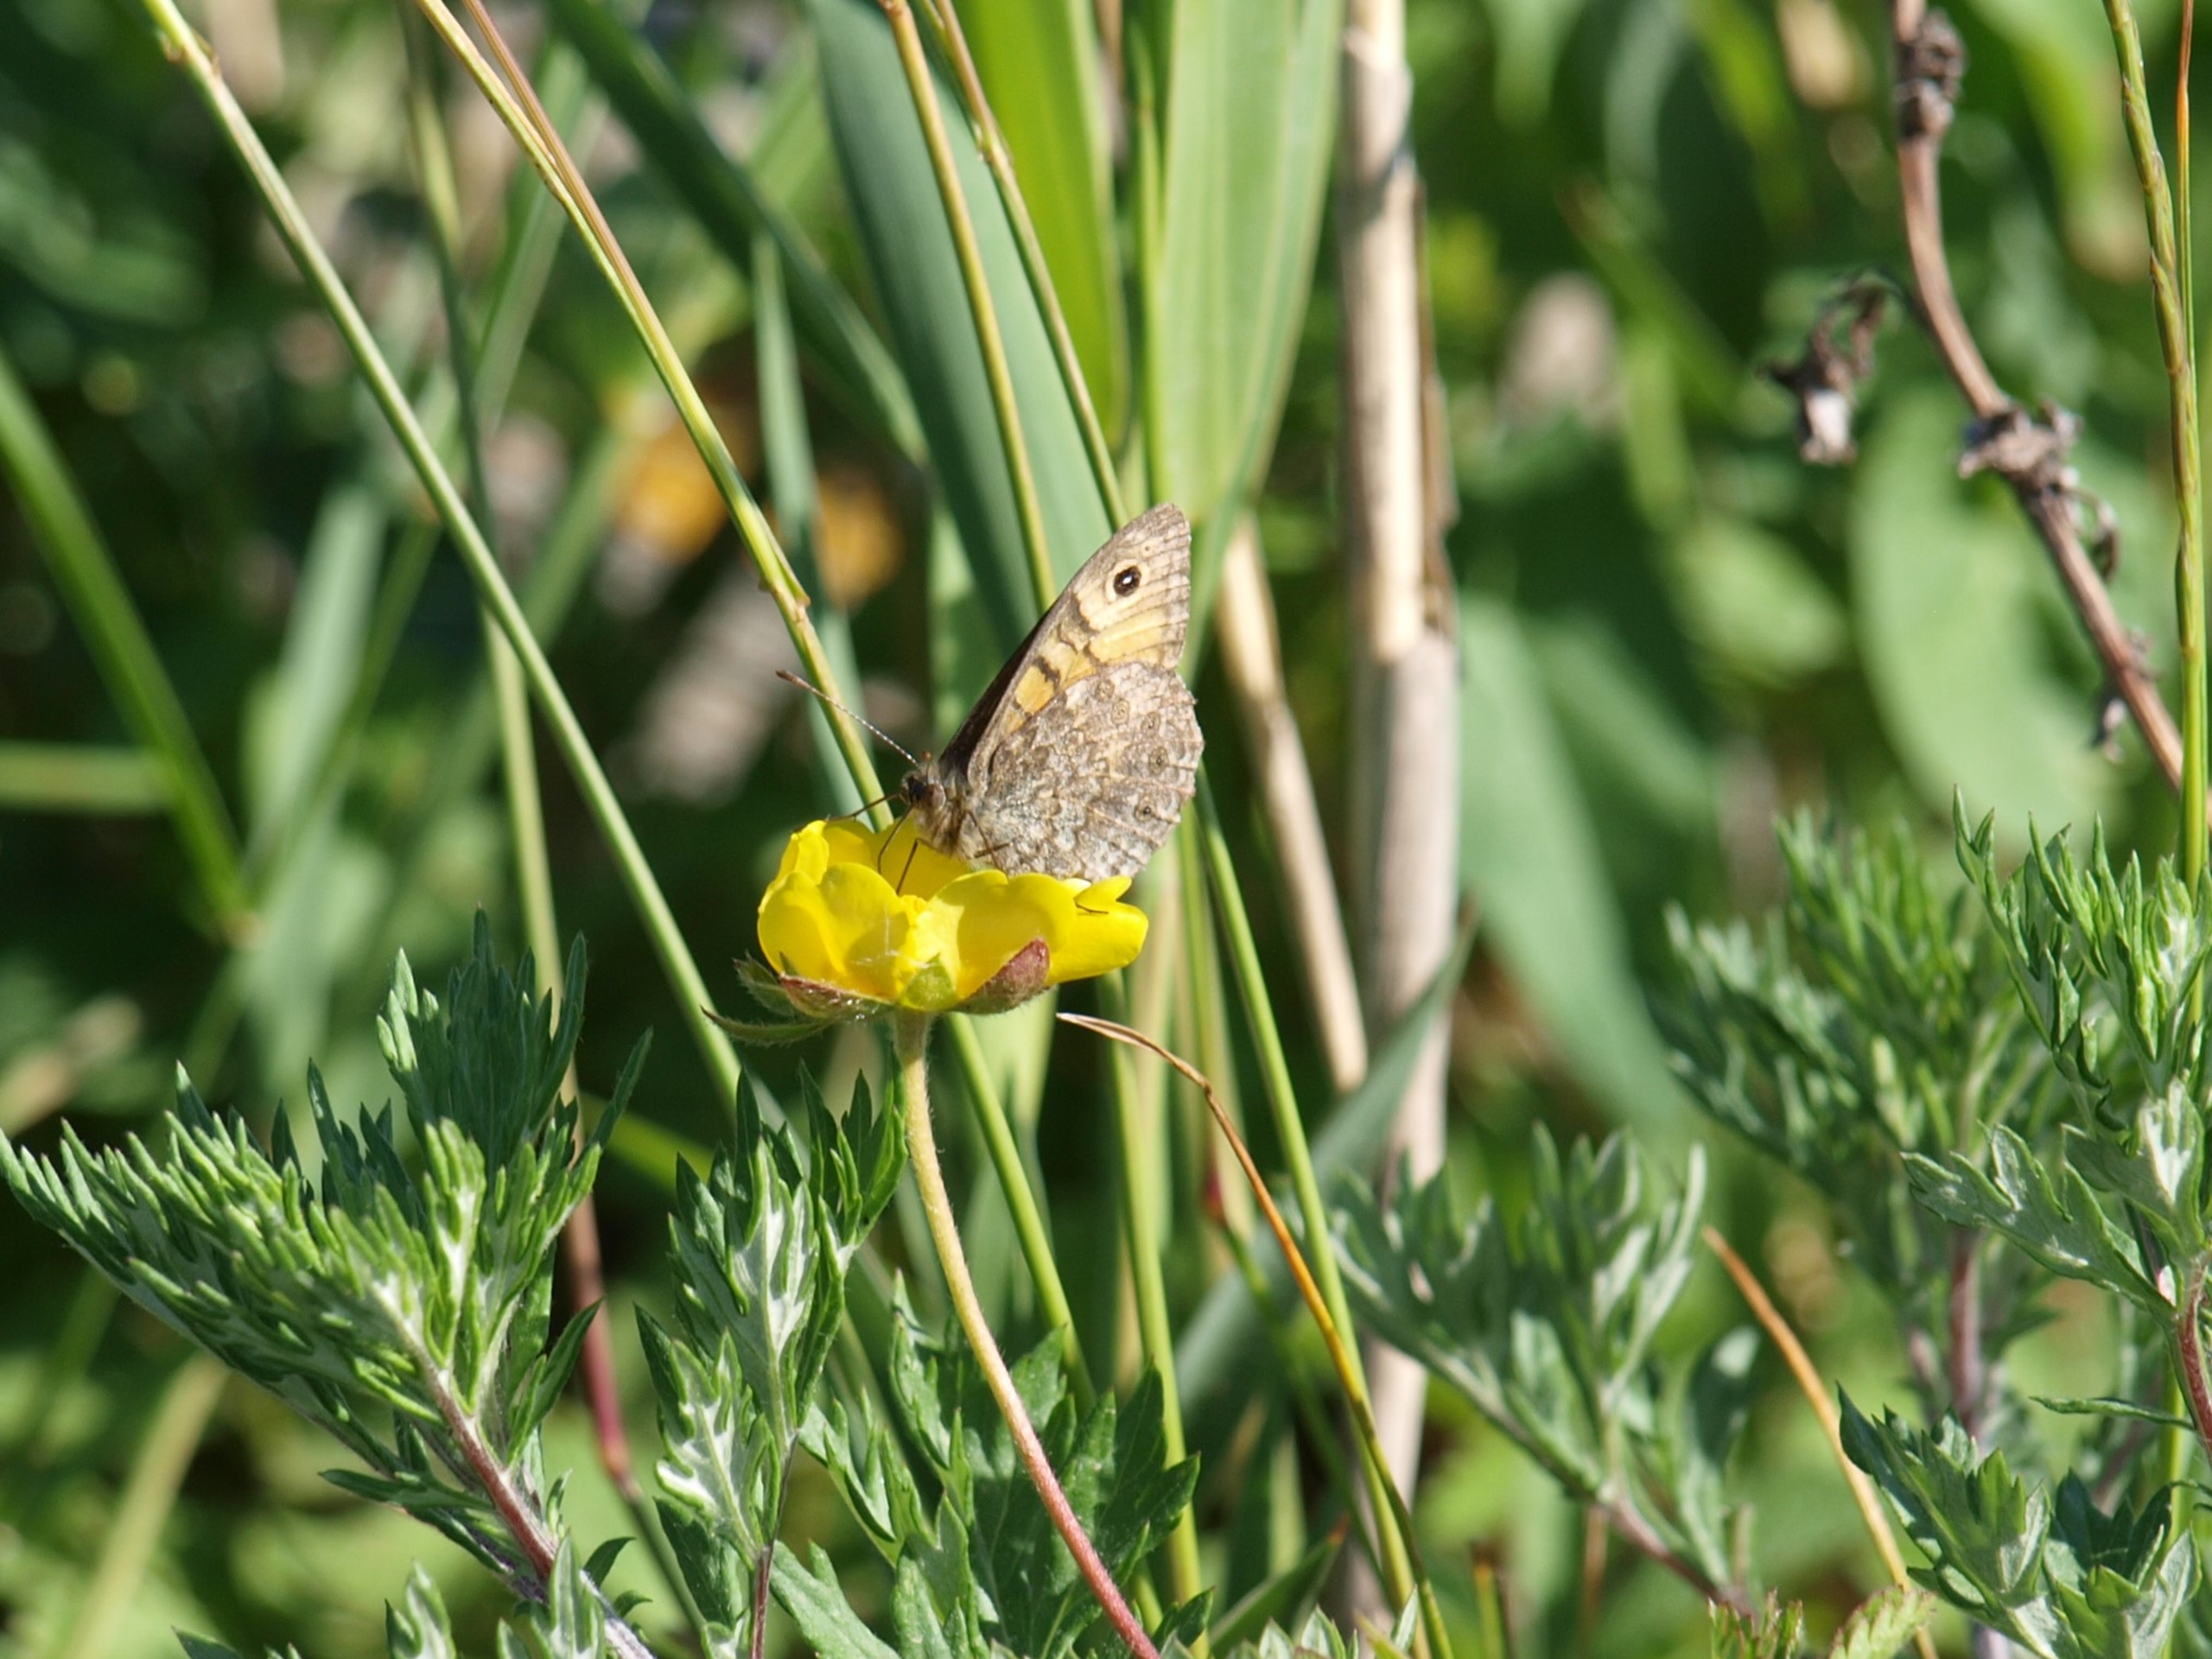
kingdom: Animalia
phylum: Arthropoda
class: Insecta
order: Lepidoptera
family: Nymphalidae
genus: Pararge
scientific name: Pararge Lasiommata megera
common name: Vejrandøje
